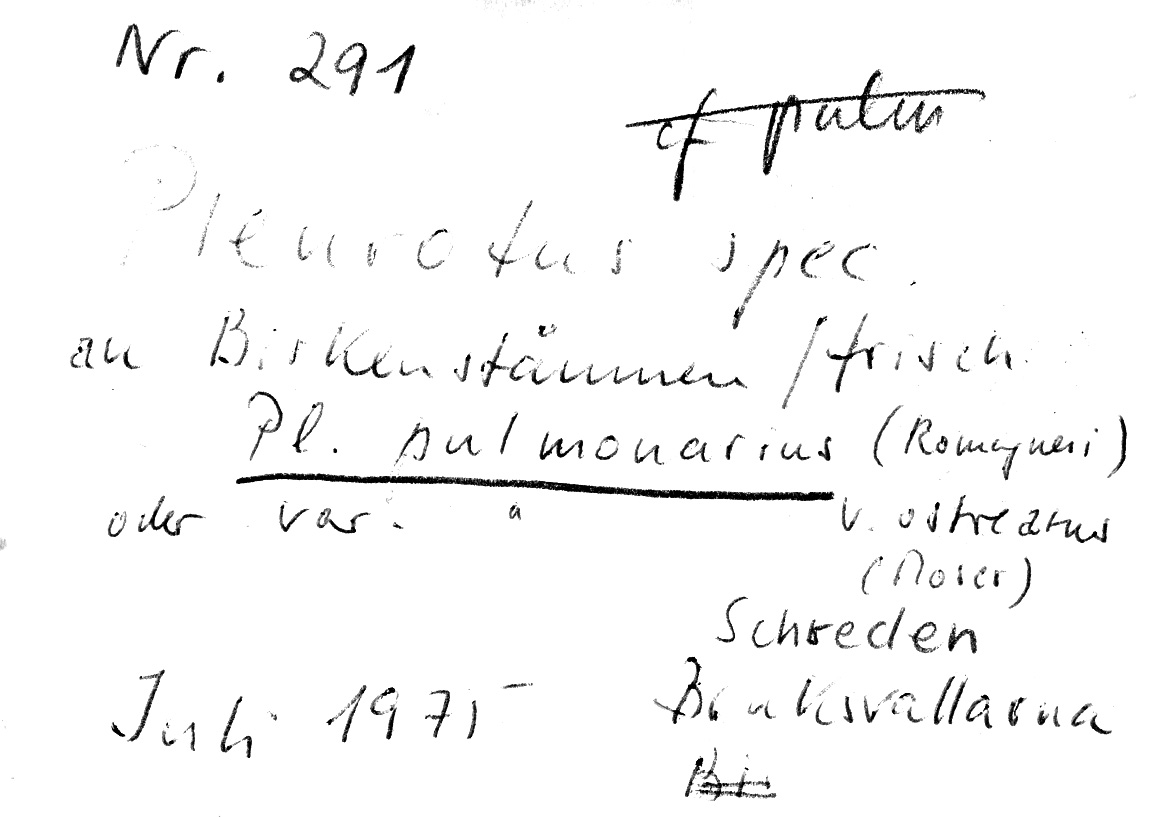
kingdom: Fungi
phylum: Basidiomycota
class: Agaricomycetes
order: Agaricales
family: Pleurotaceae
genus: Pleurotus
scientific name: Pleurotus ostreatus
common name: Oyster mushroom
